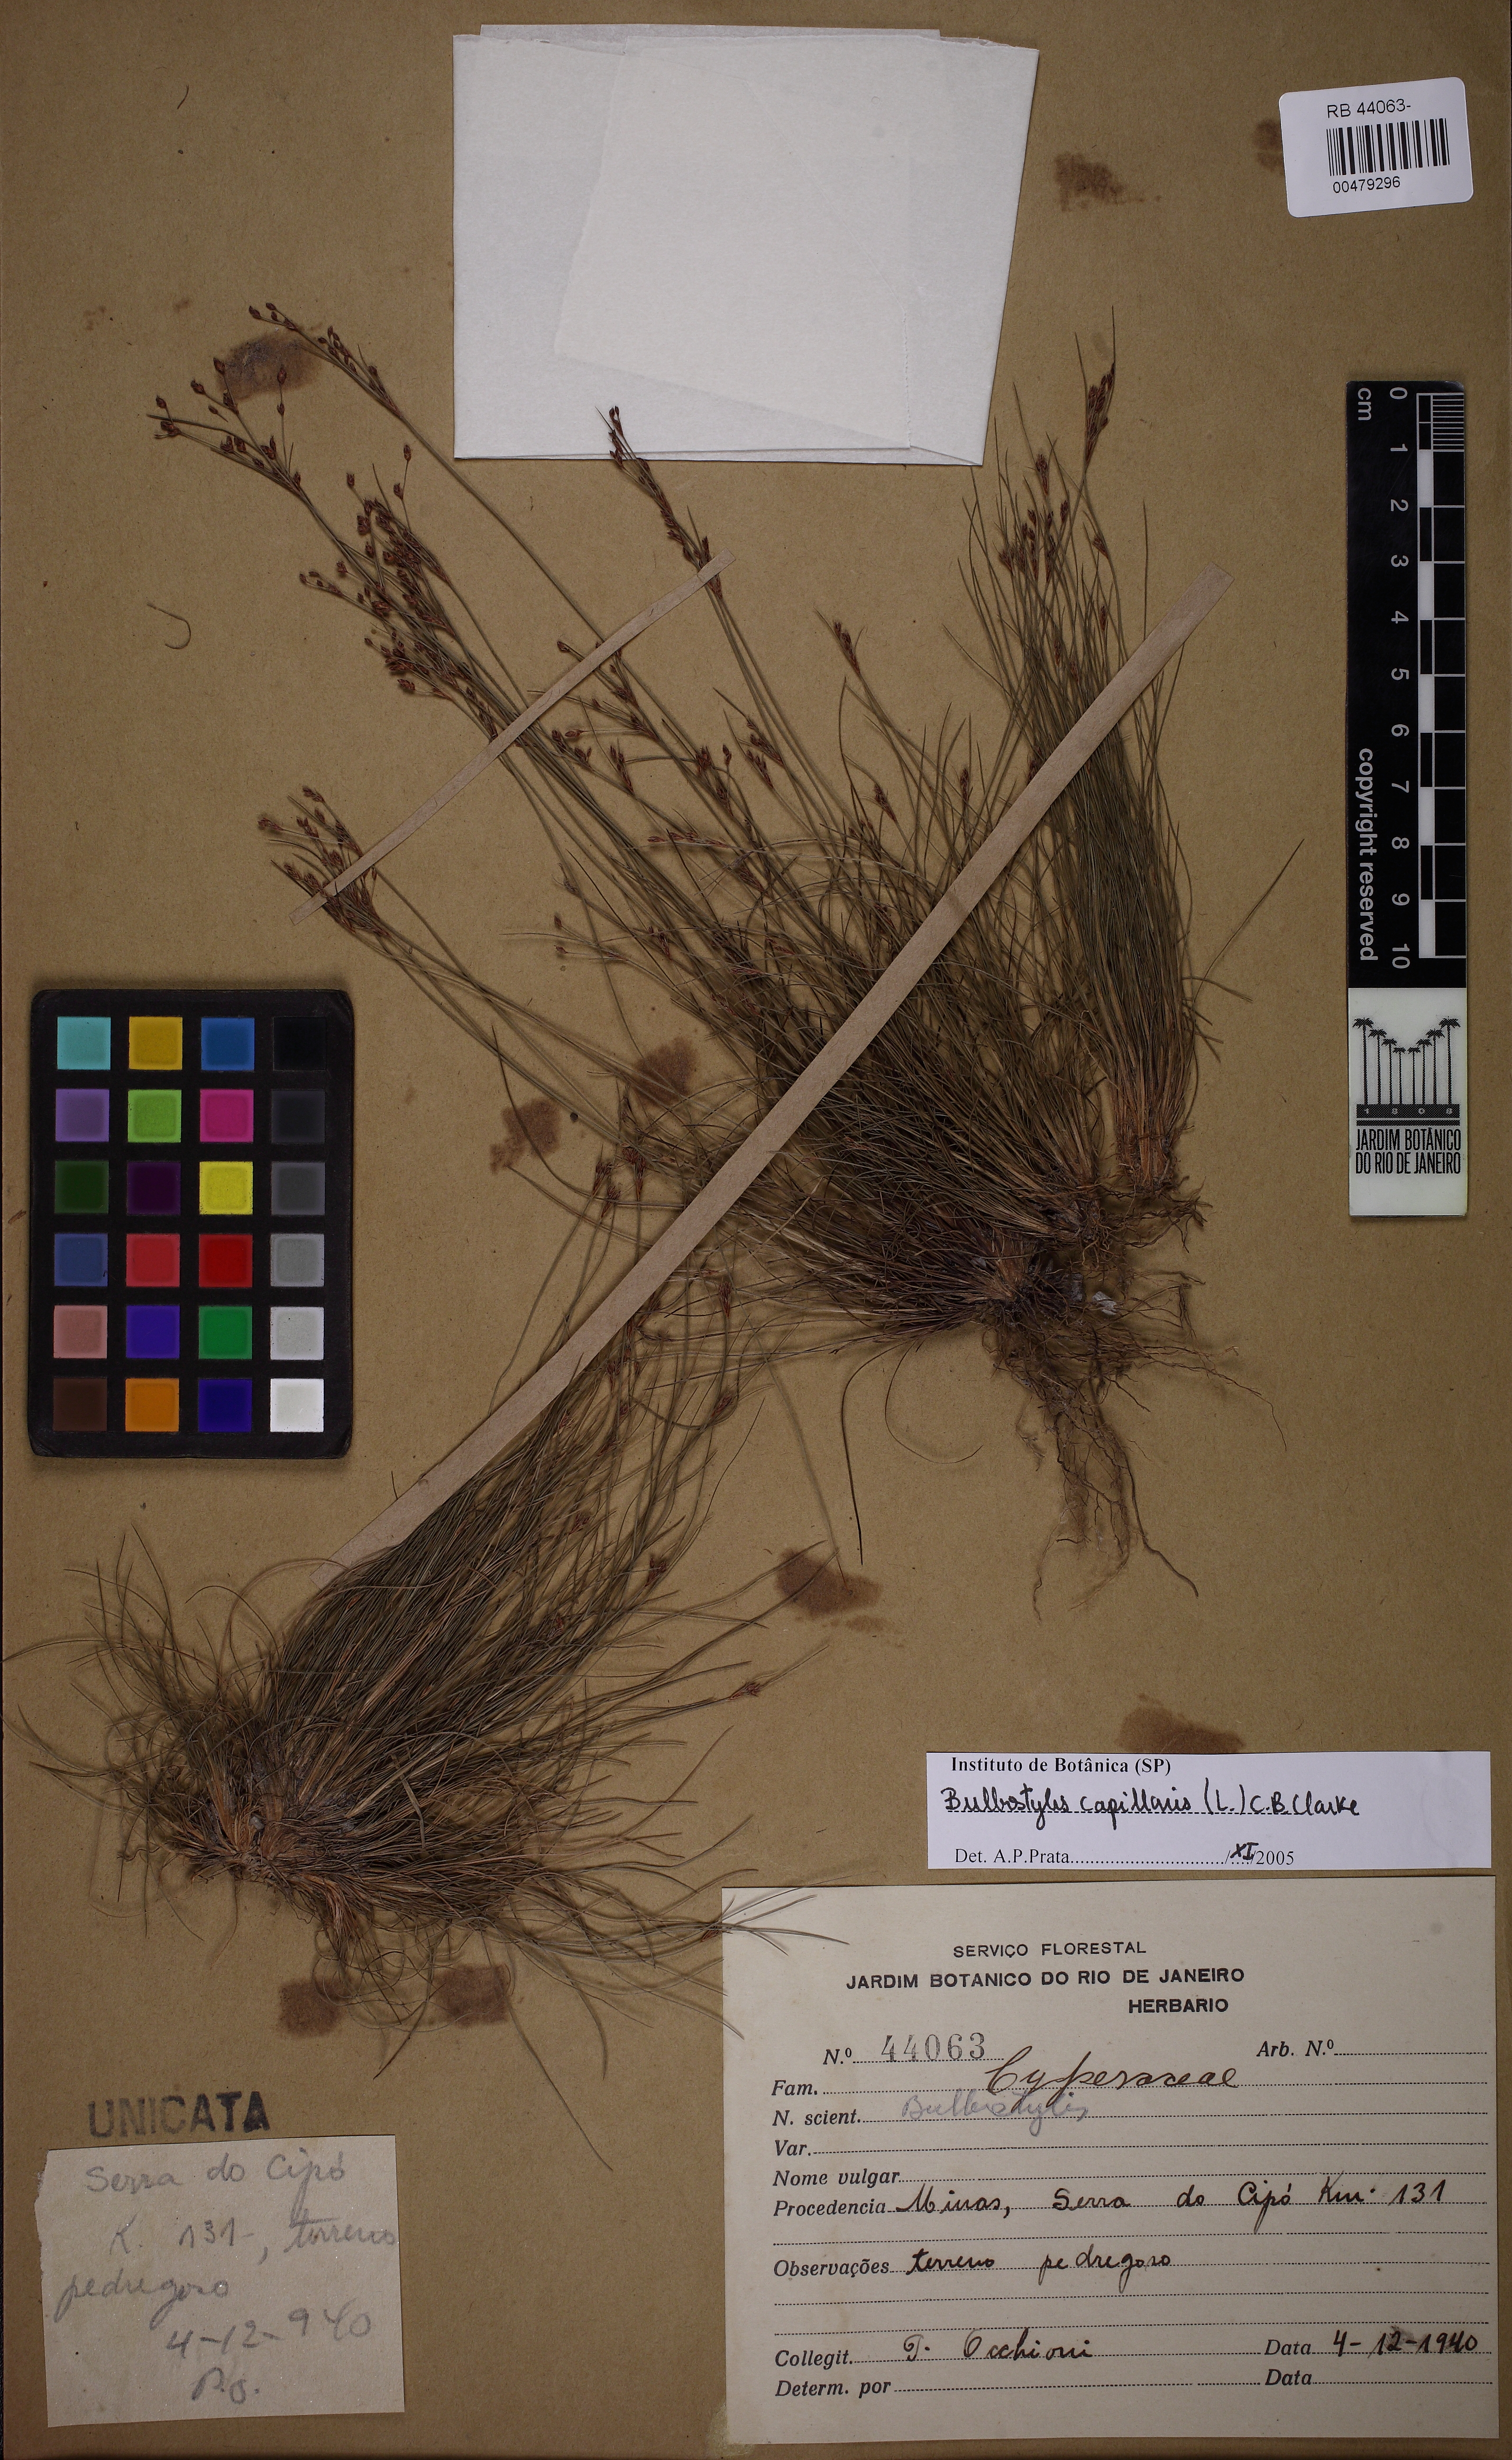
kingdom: Plantae
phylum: Tracheophyta
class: Liliopsida
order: Poales
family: Cyperaceae
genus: Bulbostylis
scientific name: Bulbostylis capillaris
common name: Densetuft hairsedge
